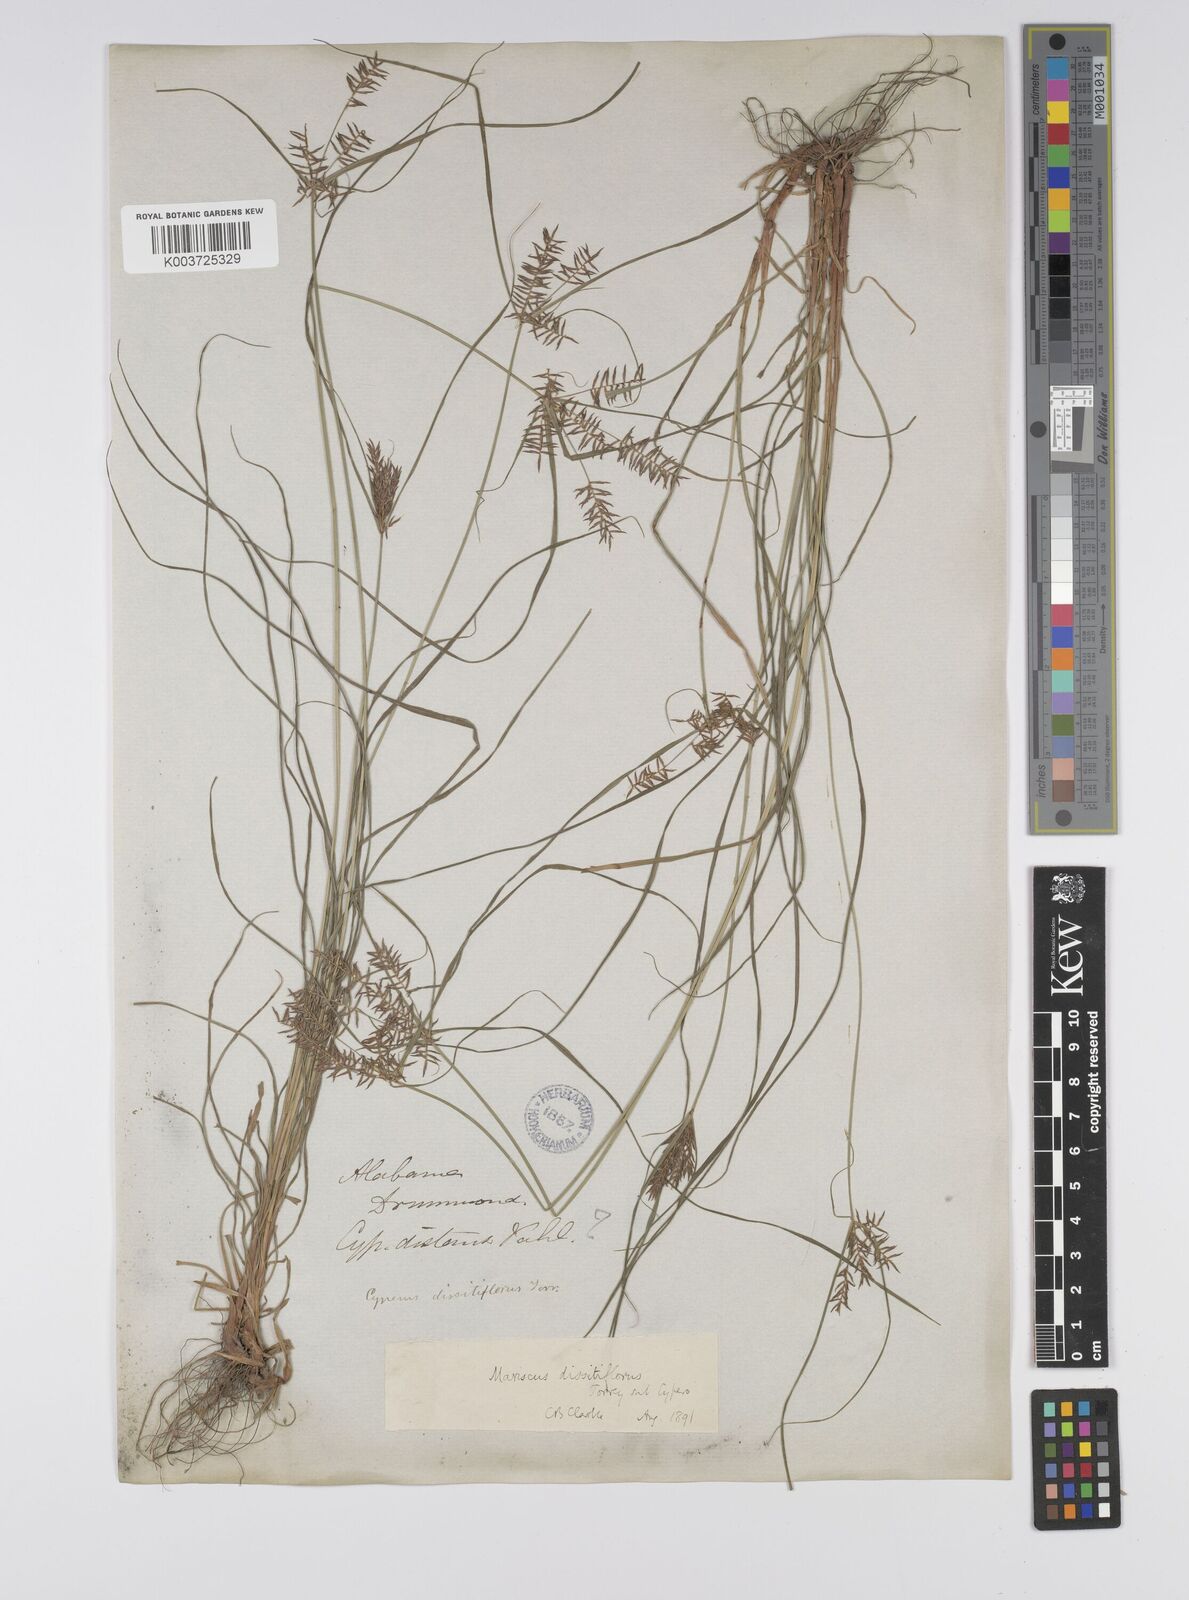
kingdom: Plantae
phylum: Tracheophyta
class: Liliopsida
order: Poales
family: Cyperaceae
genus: Cyperus
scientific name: Cyperus
